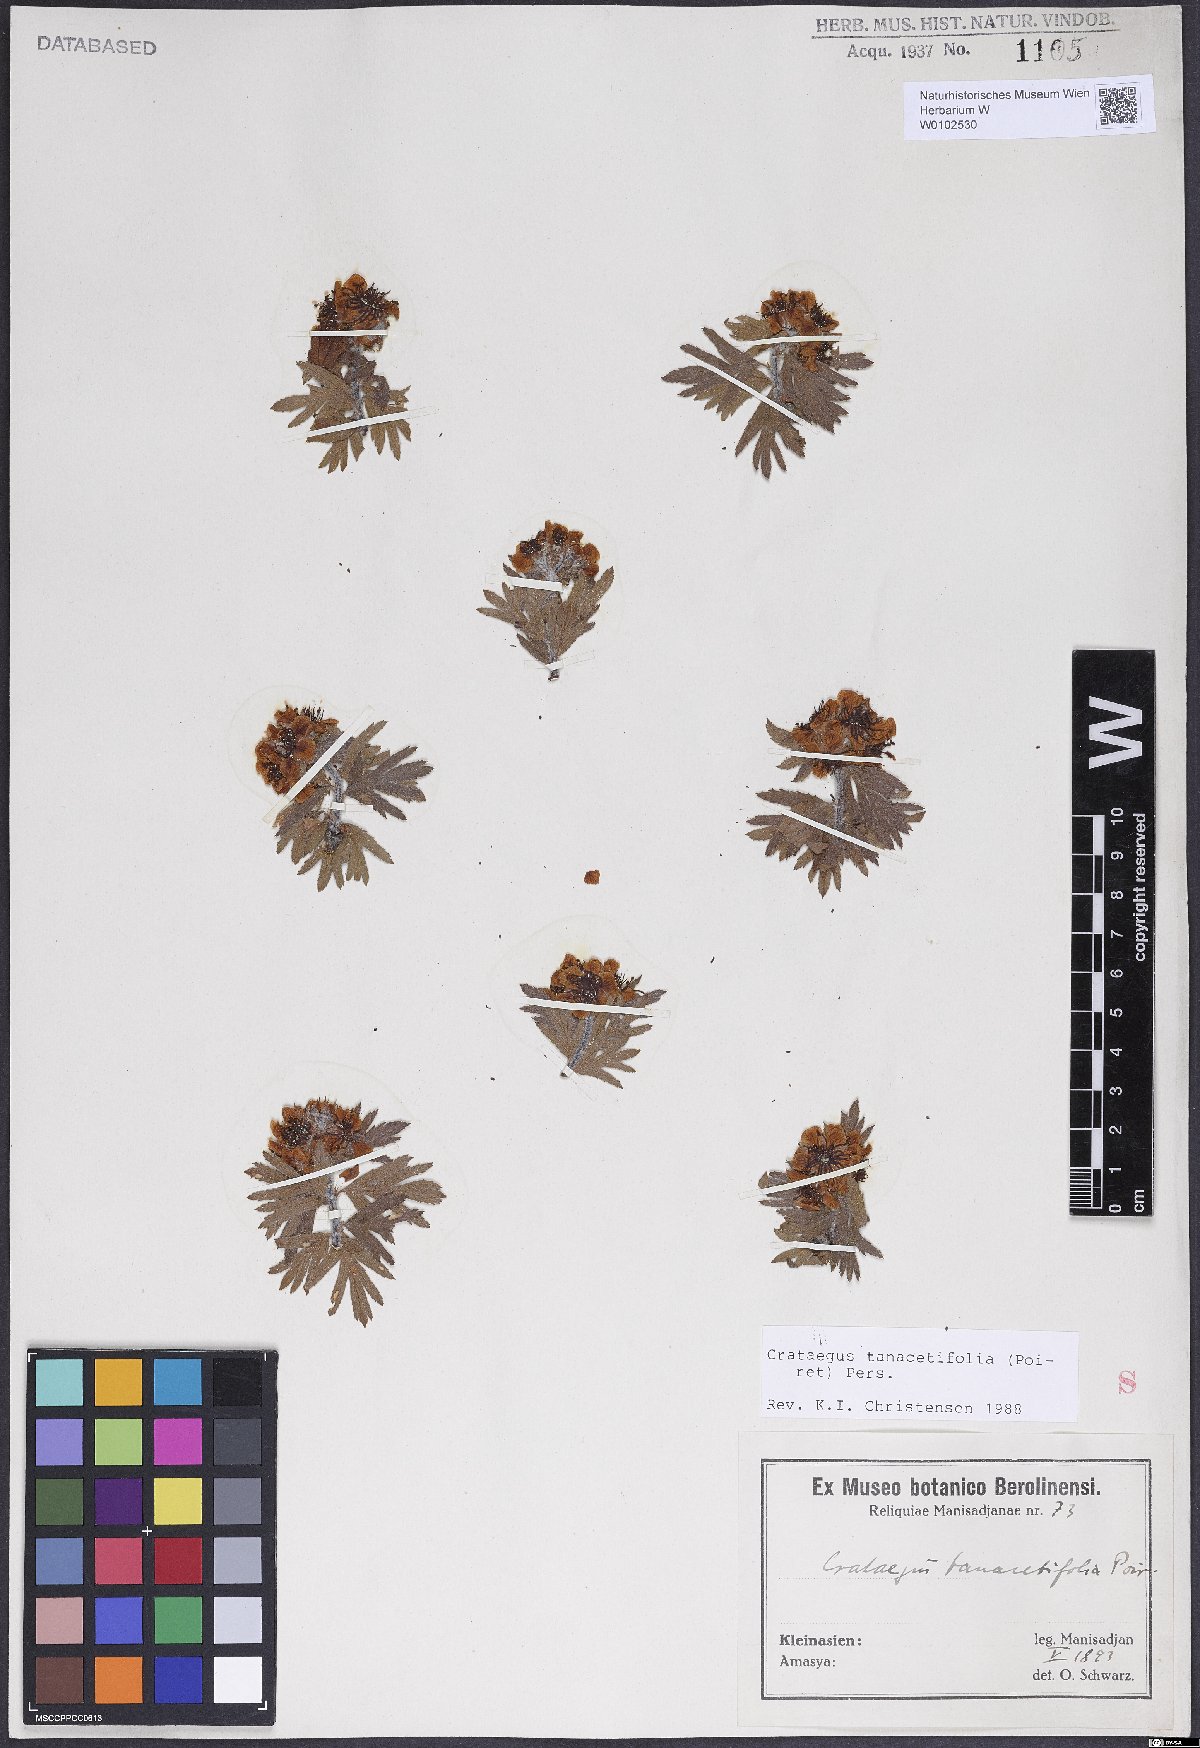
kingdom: Plantae
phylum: Tracheophyta
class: Magnoliopsida
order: Rosales
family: Rosaceae
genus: Crataegus
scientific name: Crataegus tanacetifolia
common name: Tansy-leaved thorn
